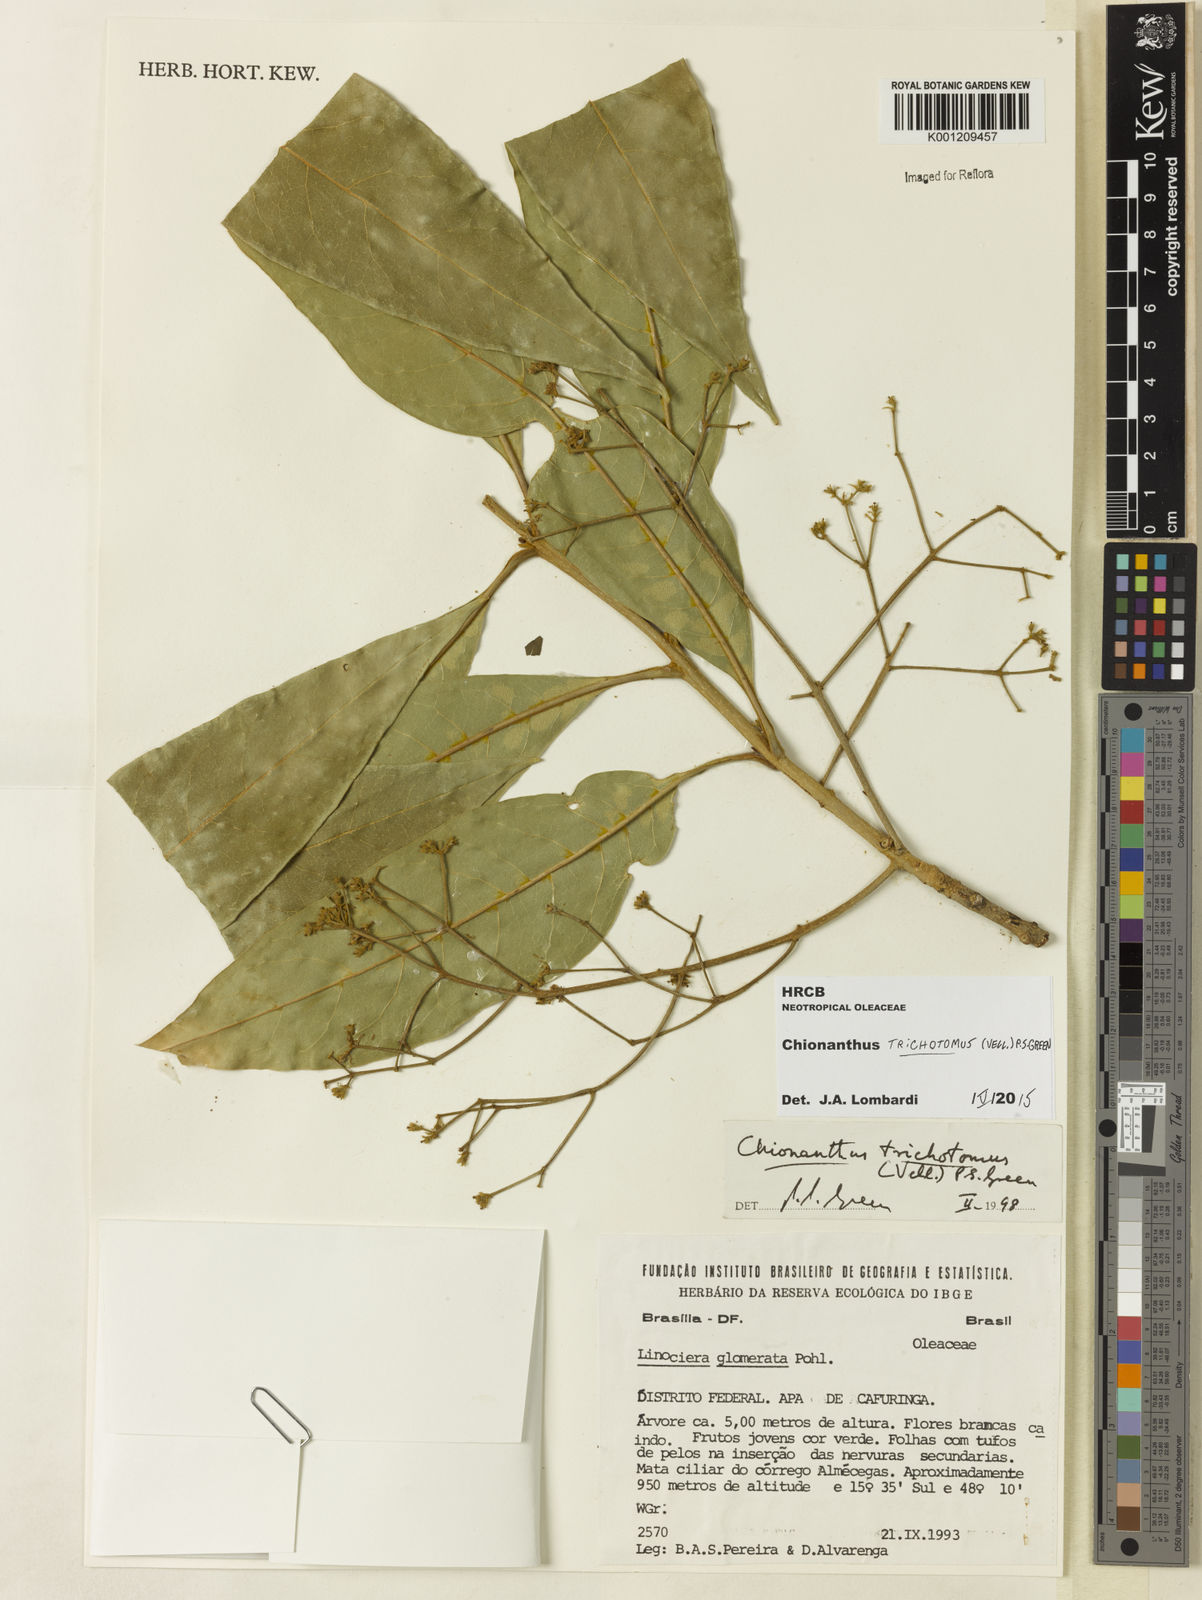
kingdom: Plantae
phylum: Tracheophyta
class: Magnoliopsida
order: Lamiales
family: Oleaceae
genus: Chionanthus
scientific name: Chionanthus trichotomus
